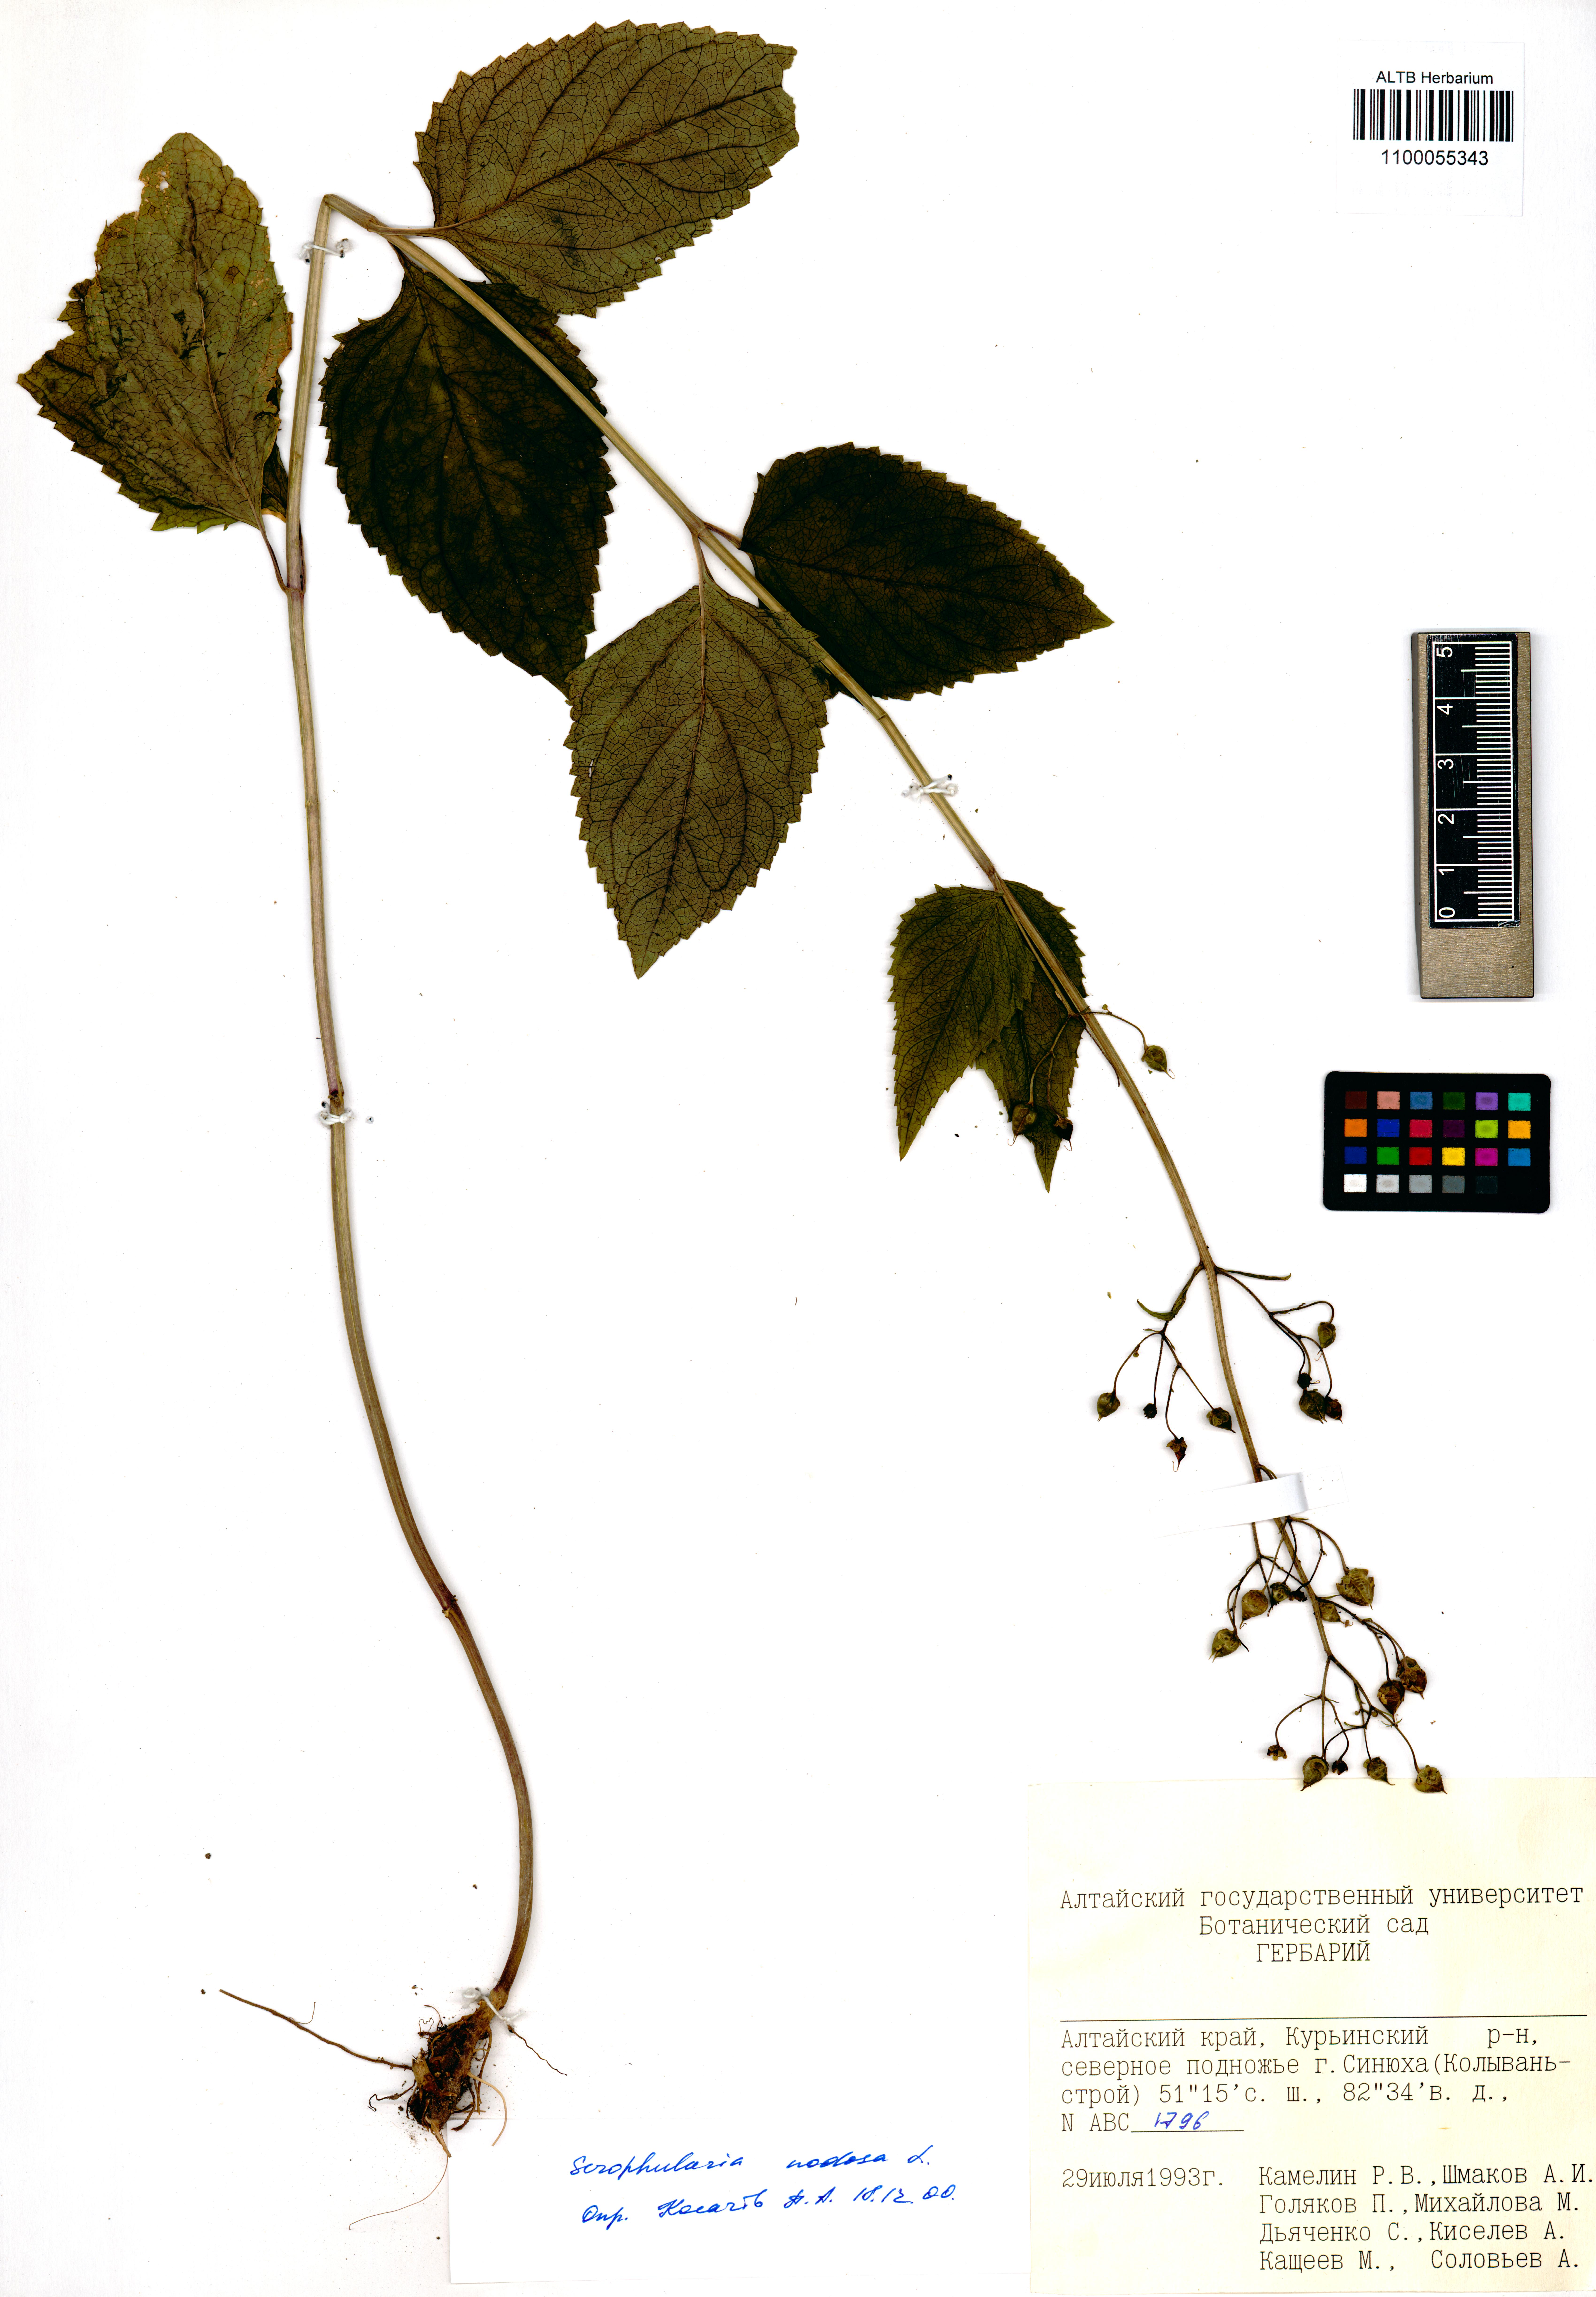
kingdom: Plantae
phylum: Tracheophyta
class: Magnoliopsida
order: Lamiales
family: Scrophulariaceae
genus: Scrophularia
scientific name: Scrophularia nodosa
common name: Common figwort
